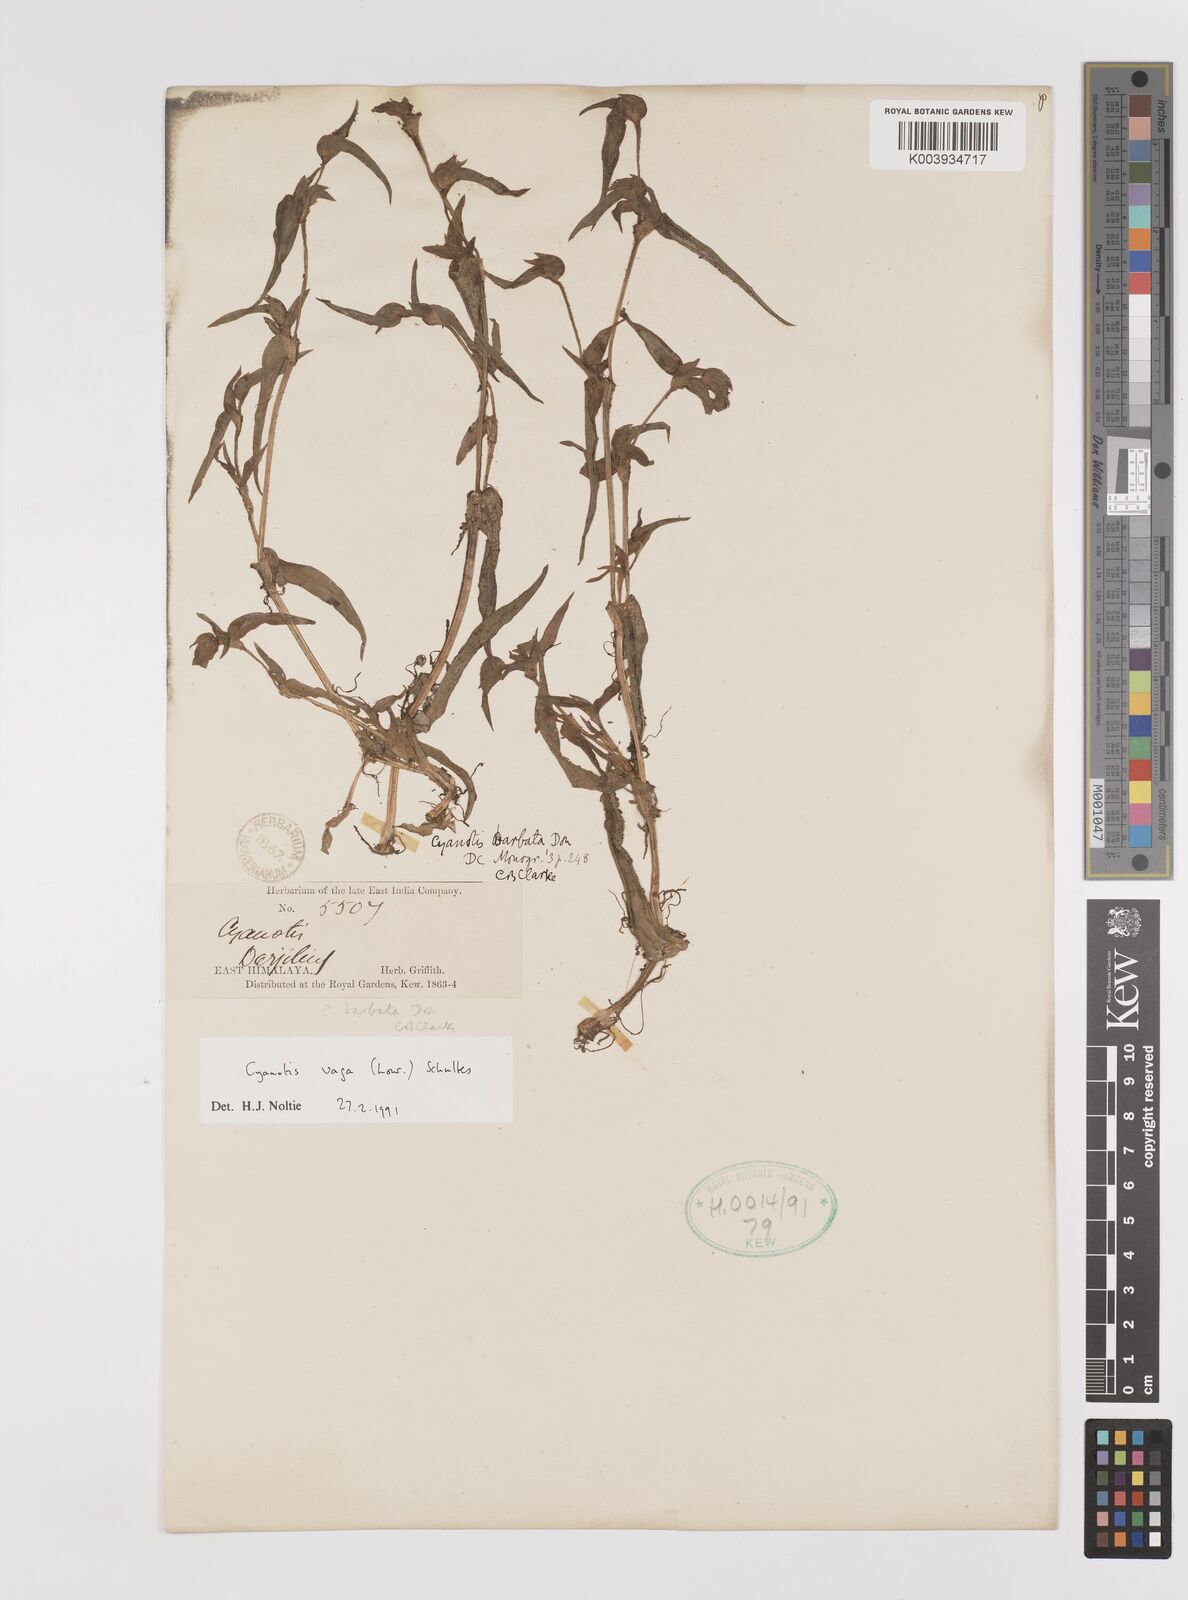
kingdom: Plantae
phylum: Tracheophyta
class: Liliopsida
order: Commelinales
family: Commelinaceae
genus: Cyanotis
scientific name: Cyanotis vaga
